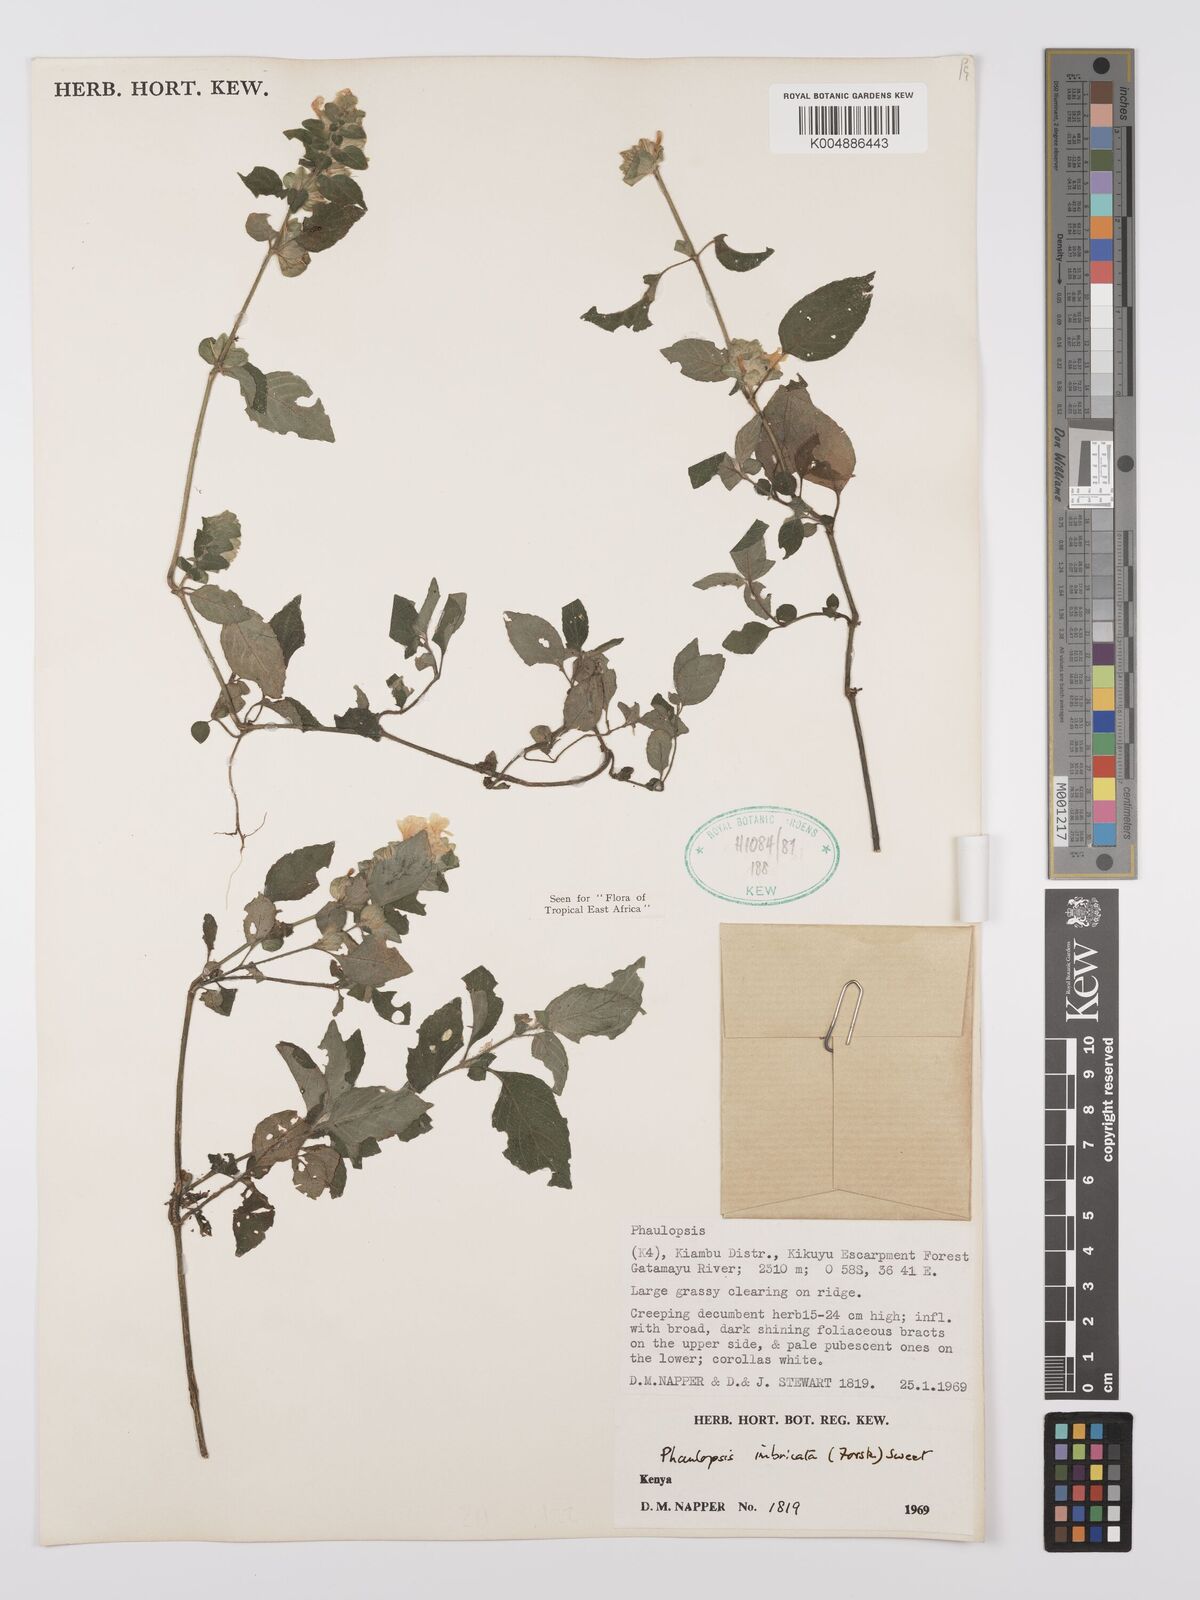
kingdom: Plantae
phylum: Tracheophyta
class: Magnoliopsida
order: Lamiales
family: Acanthaceae
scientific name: Acanthaceae
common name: Acanthaceae
